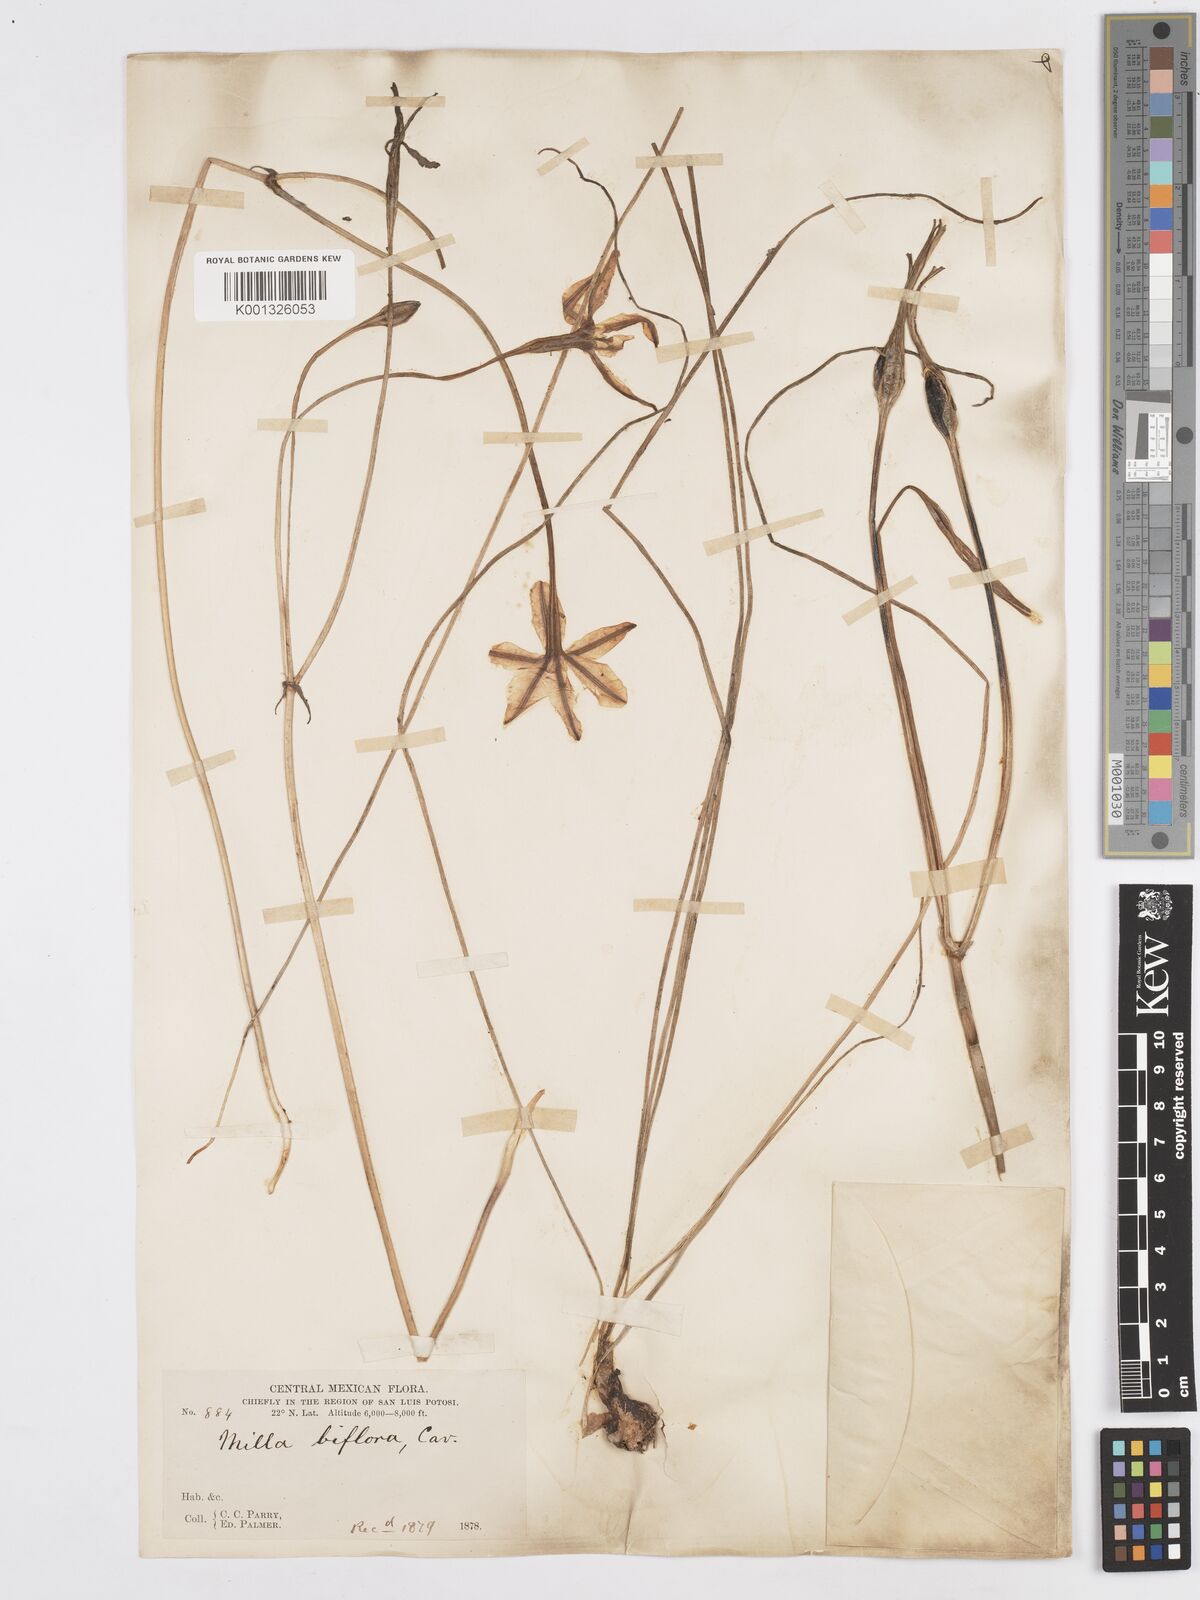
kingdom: Plantae
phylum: Tracheophyta
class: Liliopsida
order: Asparagales
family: Asparagaceae
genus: Milla
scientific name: Milla biflora
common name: Mexican-star
